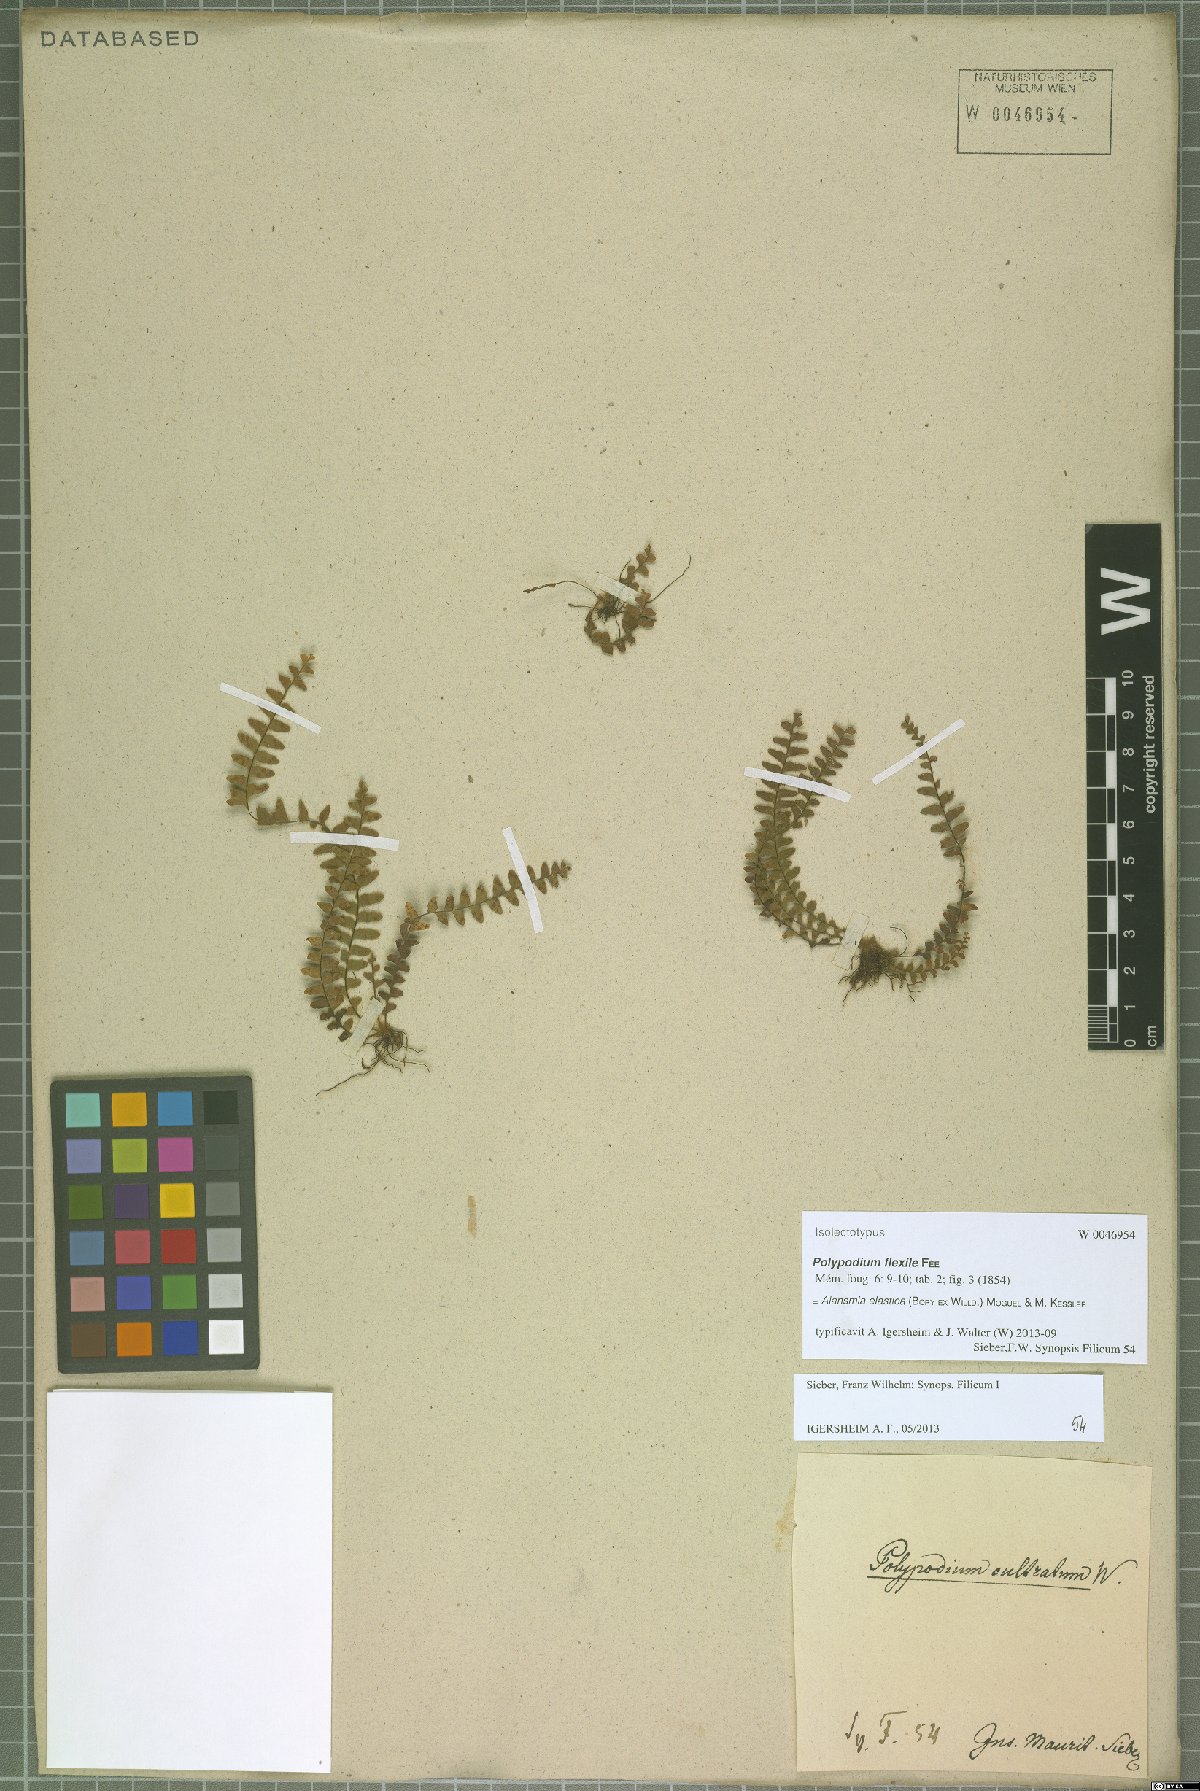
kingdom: Plantae
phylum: Tracheophyta
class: Polypodiopsida
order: Polypodiales
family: Polypodiaceae
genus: Alansmia
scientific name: Alansmia elastica
